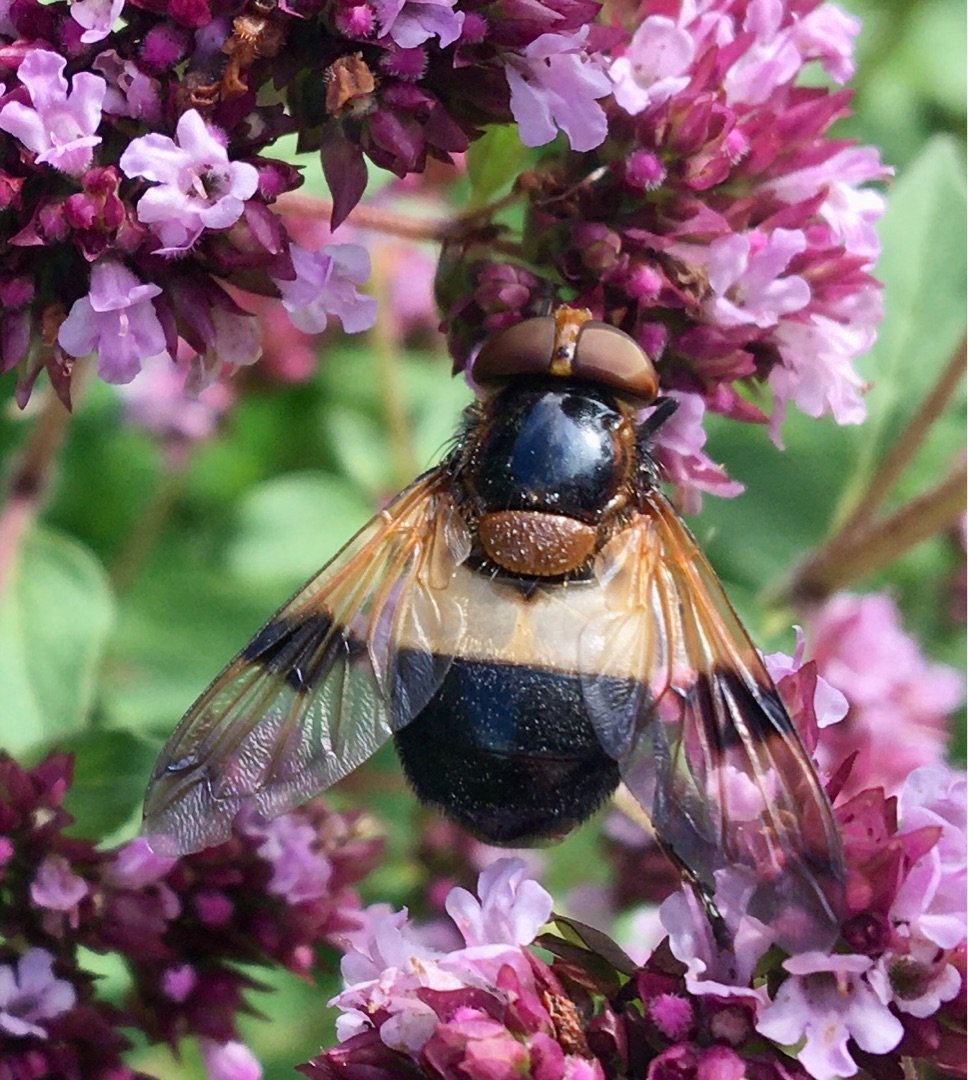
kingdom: Animalia
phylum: Arthropoda
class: Insecta
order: Diptera
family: Syrphidae
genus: Volucella
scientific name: Volucella pellucens
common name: Hvidbåndet humlesvirreflue
